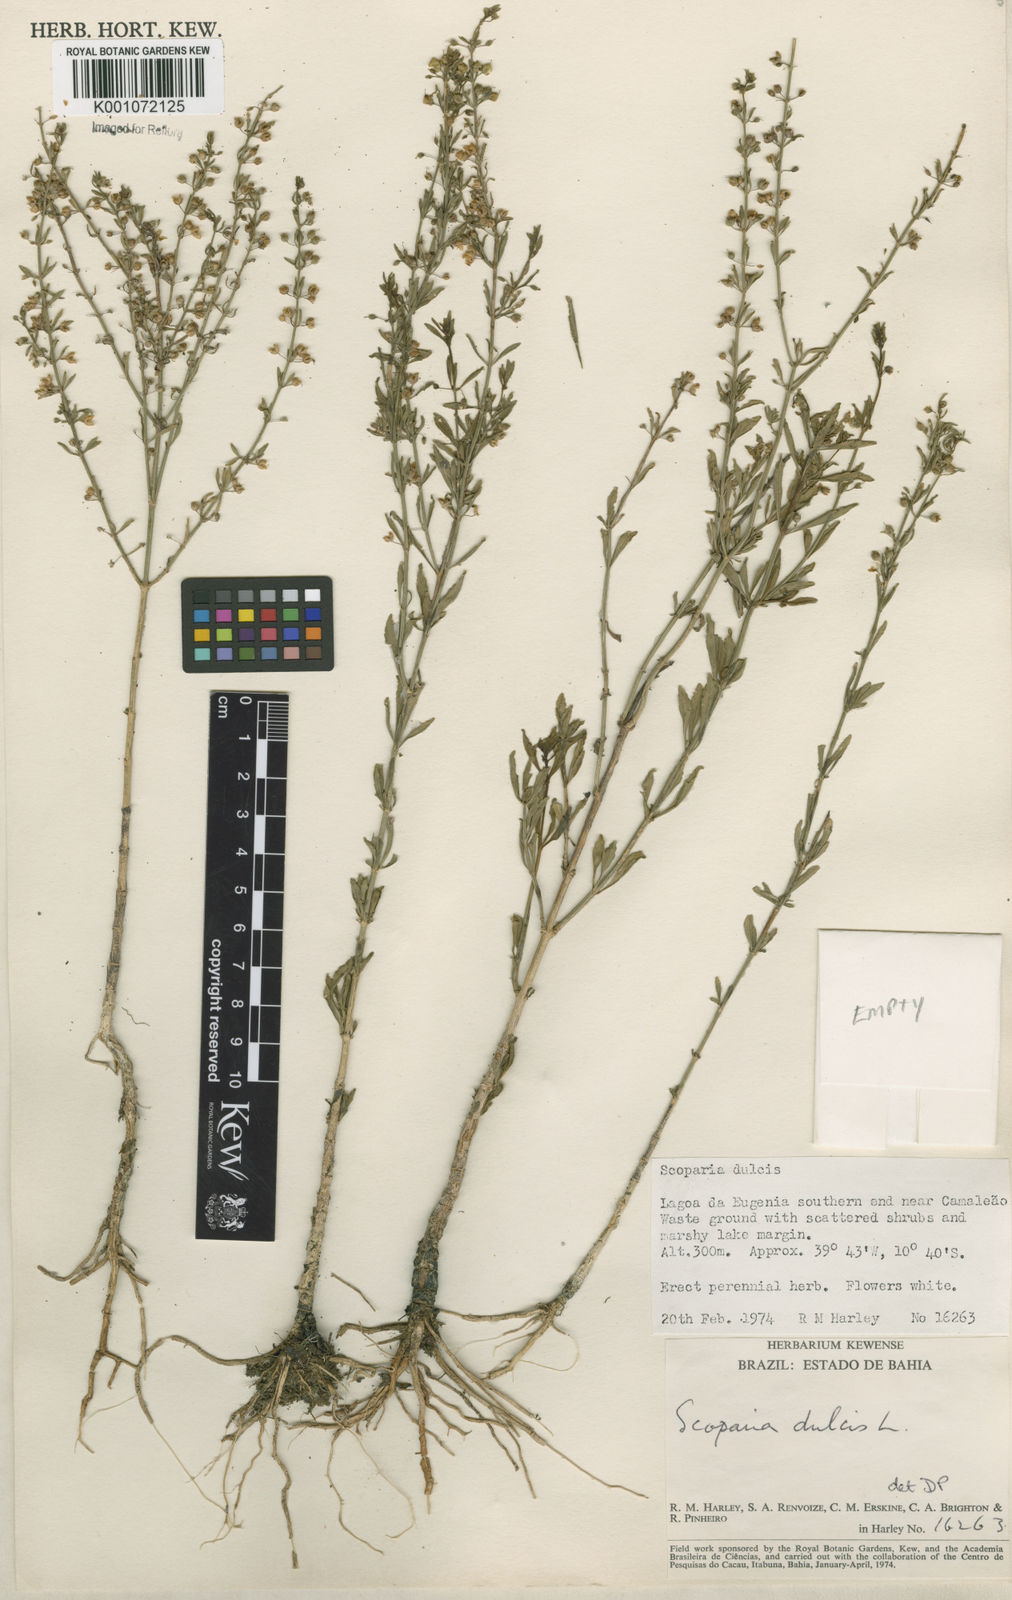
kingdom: Plantae
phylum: Tracheophyta
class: Magnoliopsida
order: Lamiales
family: Plantaginaceae
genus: Scoparia
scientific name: Scoparia dulcis
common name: Scoparia-weed
